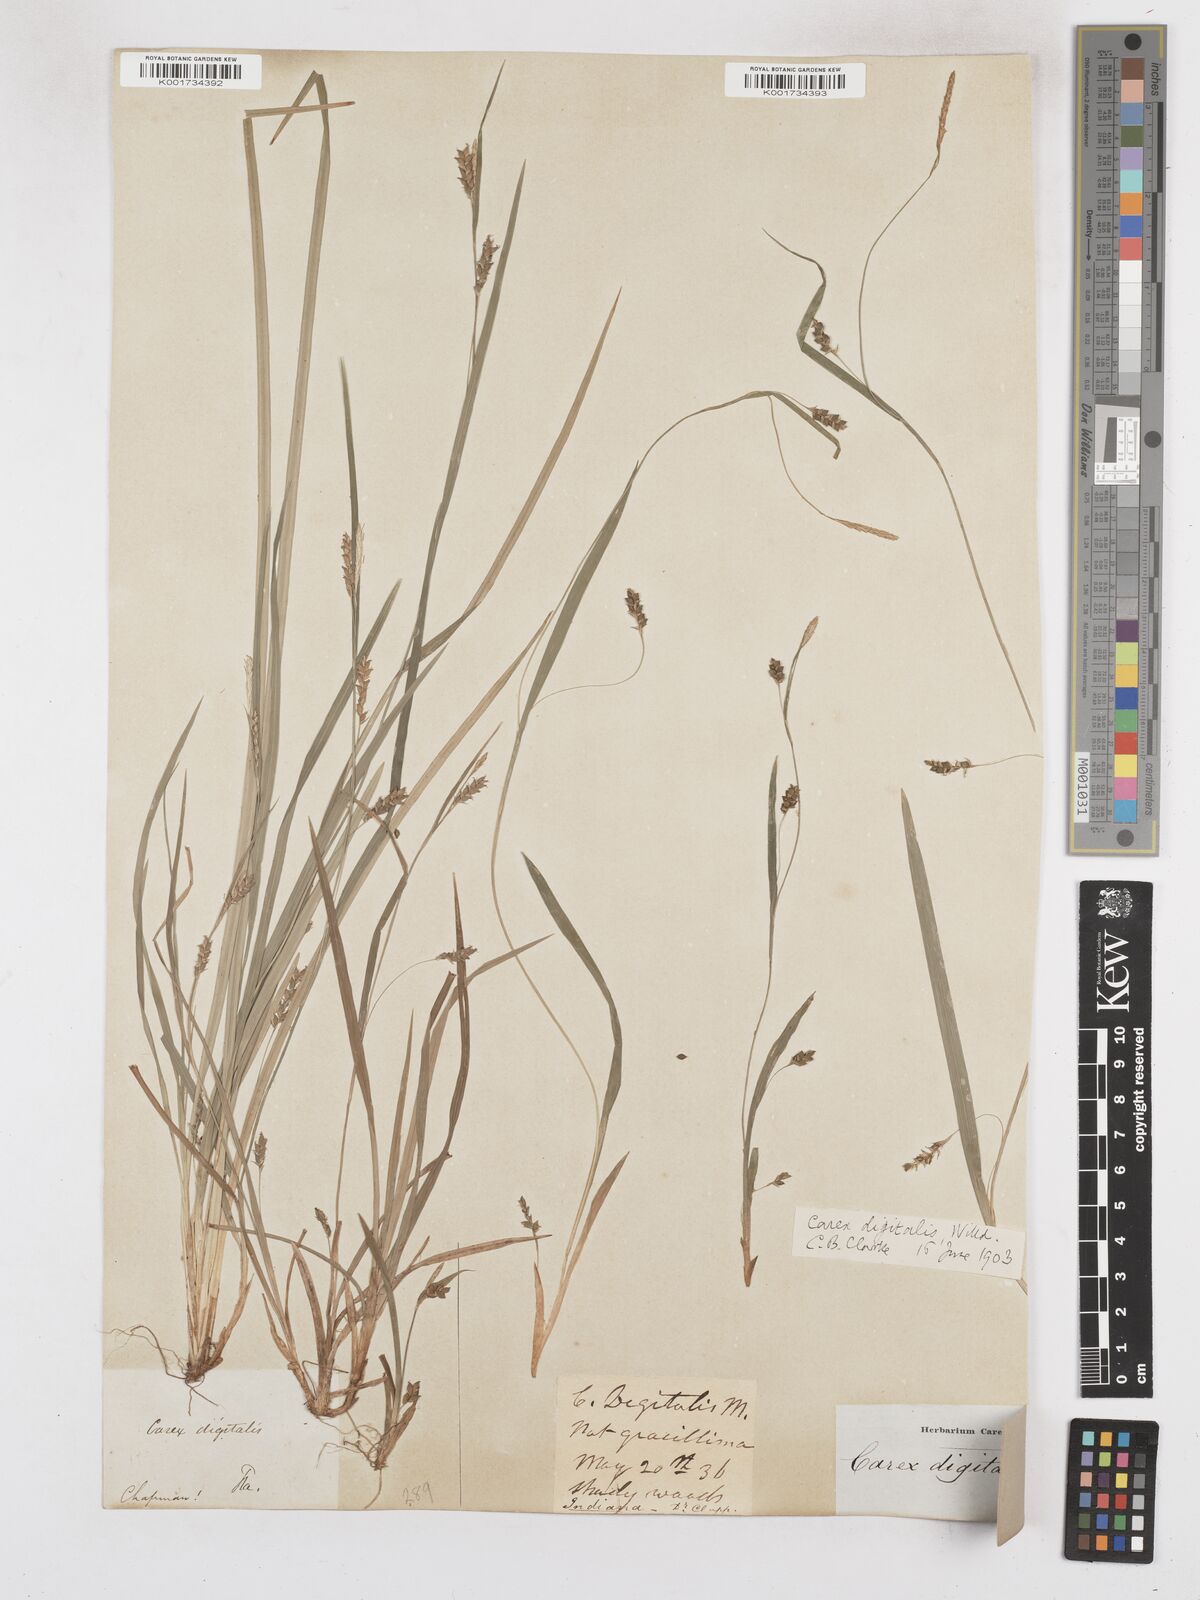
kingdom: Plantae
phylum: Tracheophyta
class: Liliopsida
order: Poales
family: Cyperaceae
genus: Carex
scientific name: Carex digitalis
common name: Slender wood sedge
